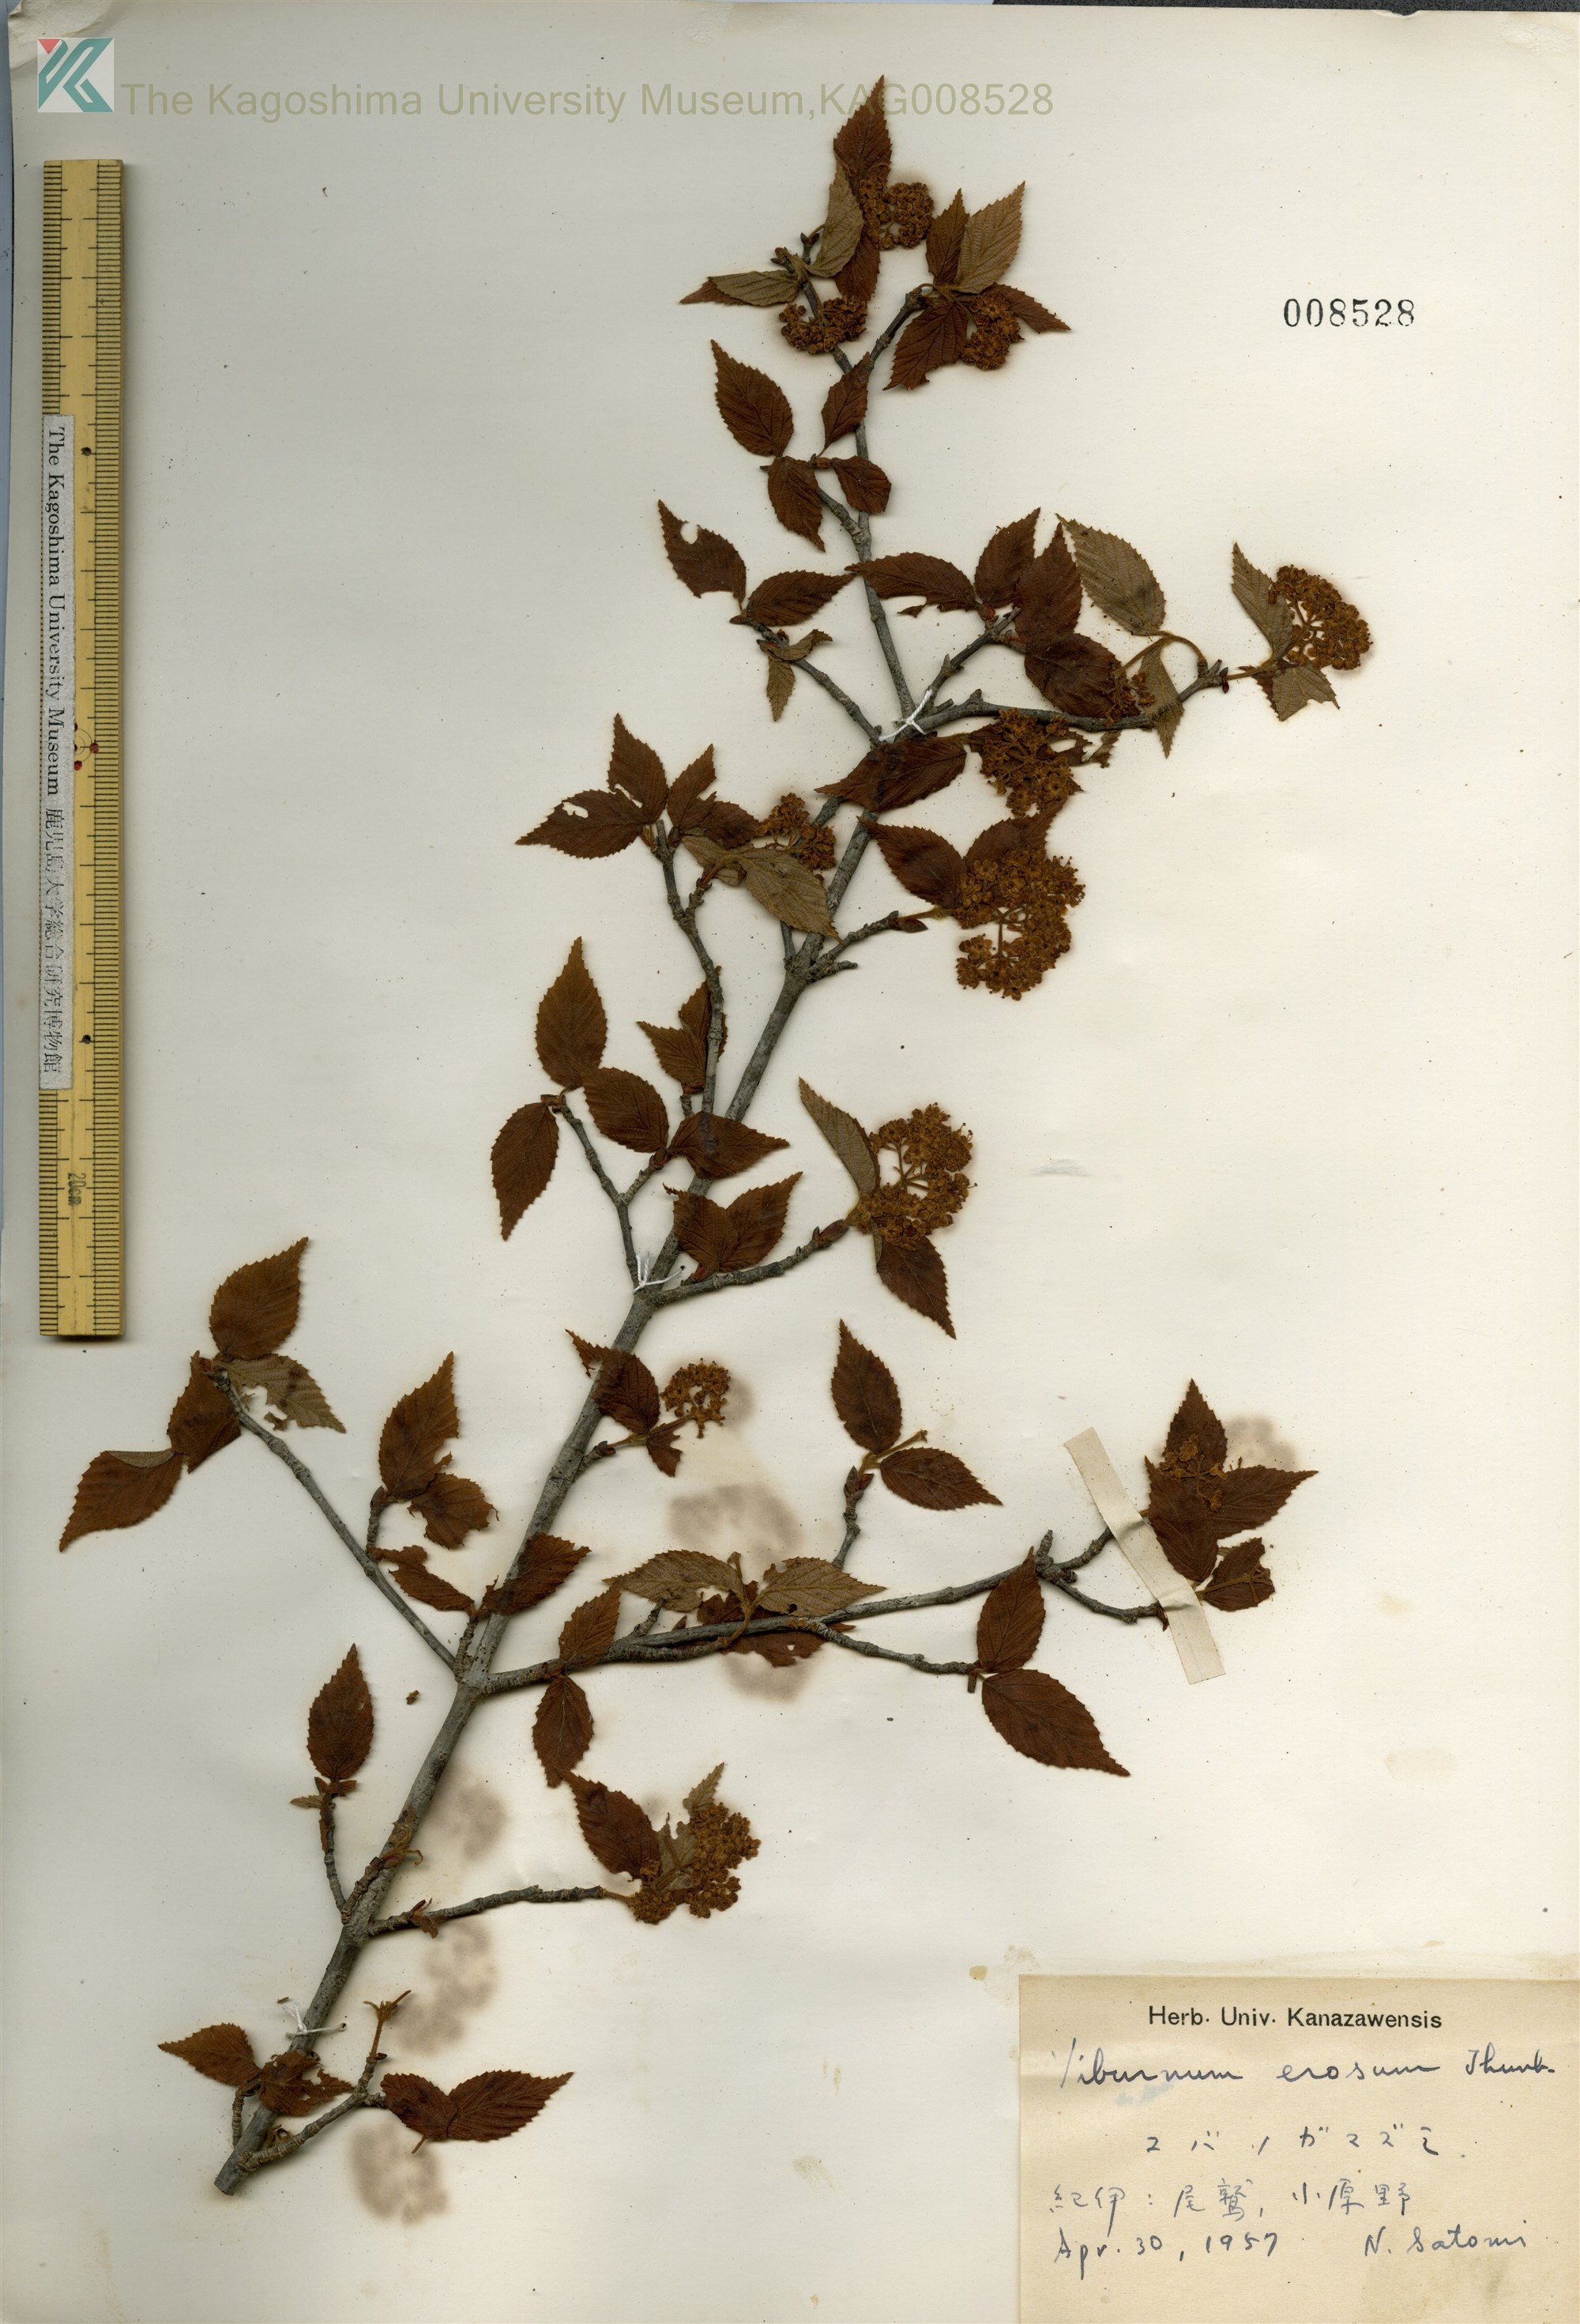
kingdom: Plantae
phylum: Tracheophyta
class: Magnoliopsida
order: Dipsacales
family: Viburnaceae
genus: Viburnum
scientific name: Viburnum erosum
